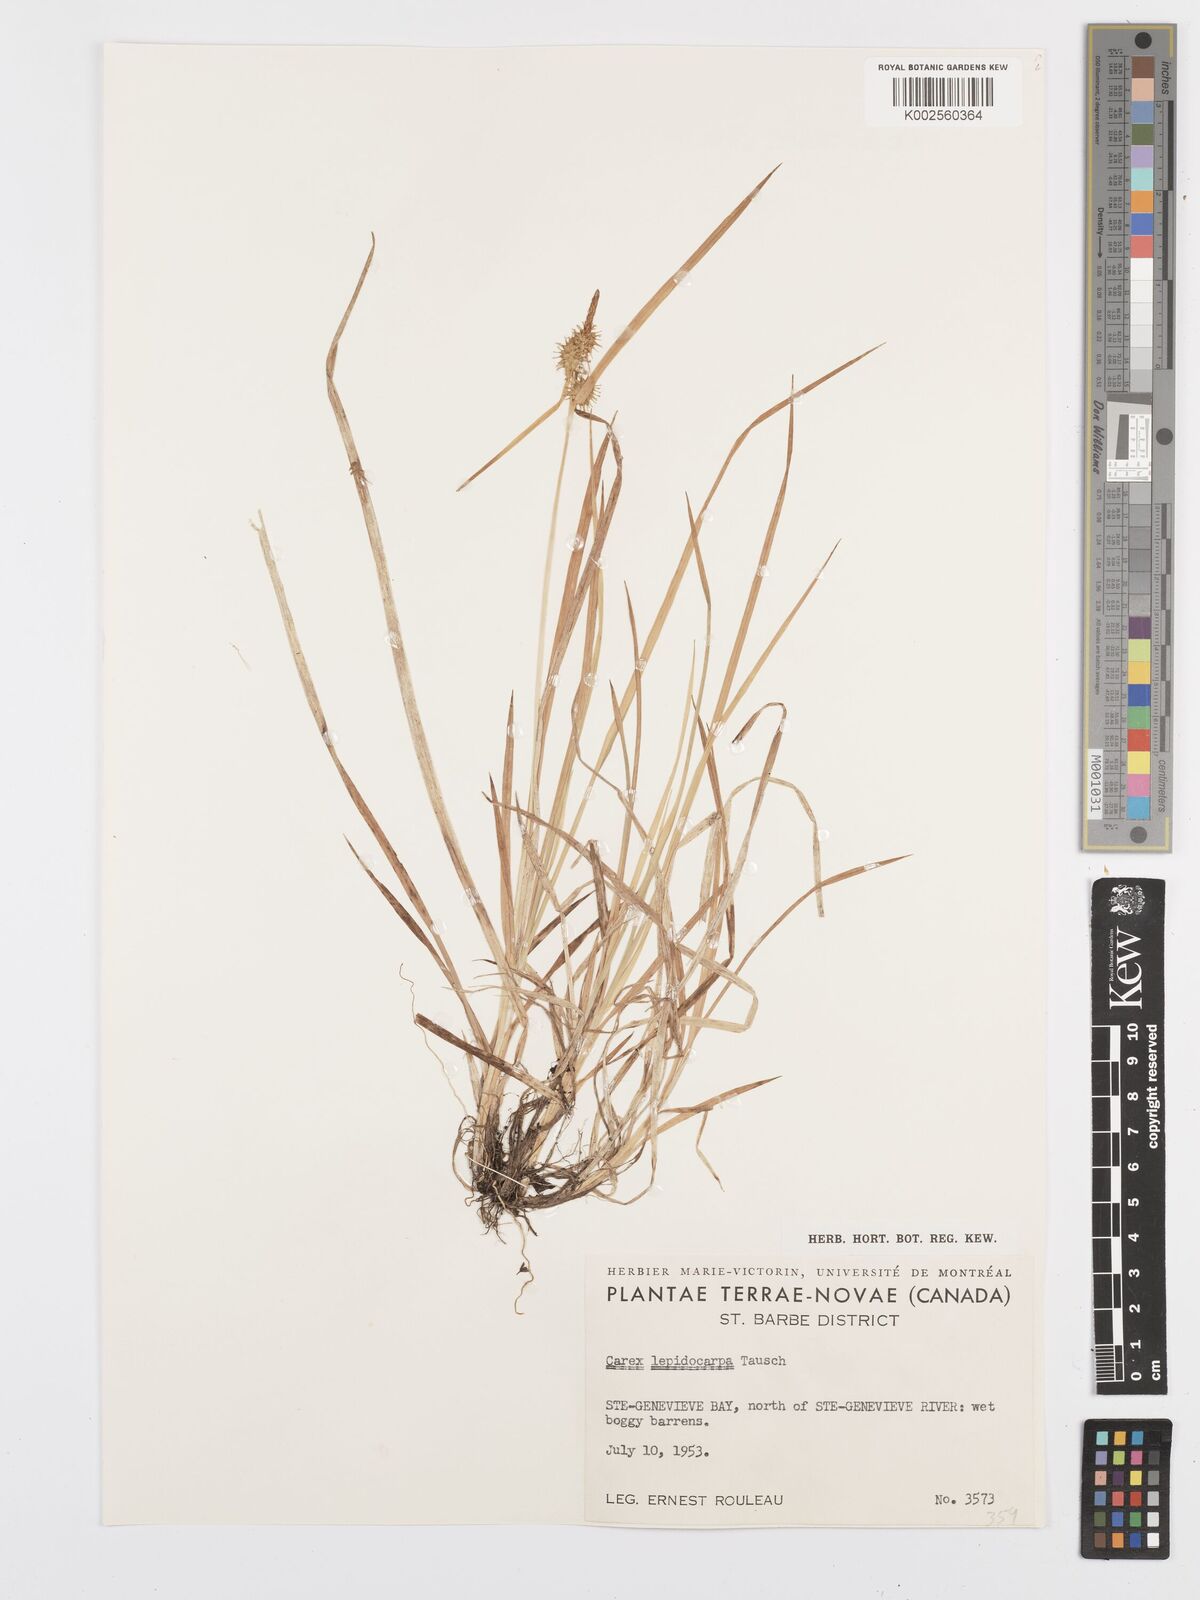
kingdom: Plantae
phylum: Tracheophyta
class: Liliopsida
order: Poales
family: Cyperaceae
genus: Carex
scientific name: Carex lepidocarpa
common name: Long-stalked yellow-sedge
